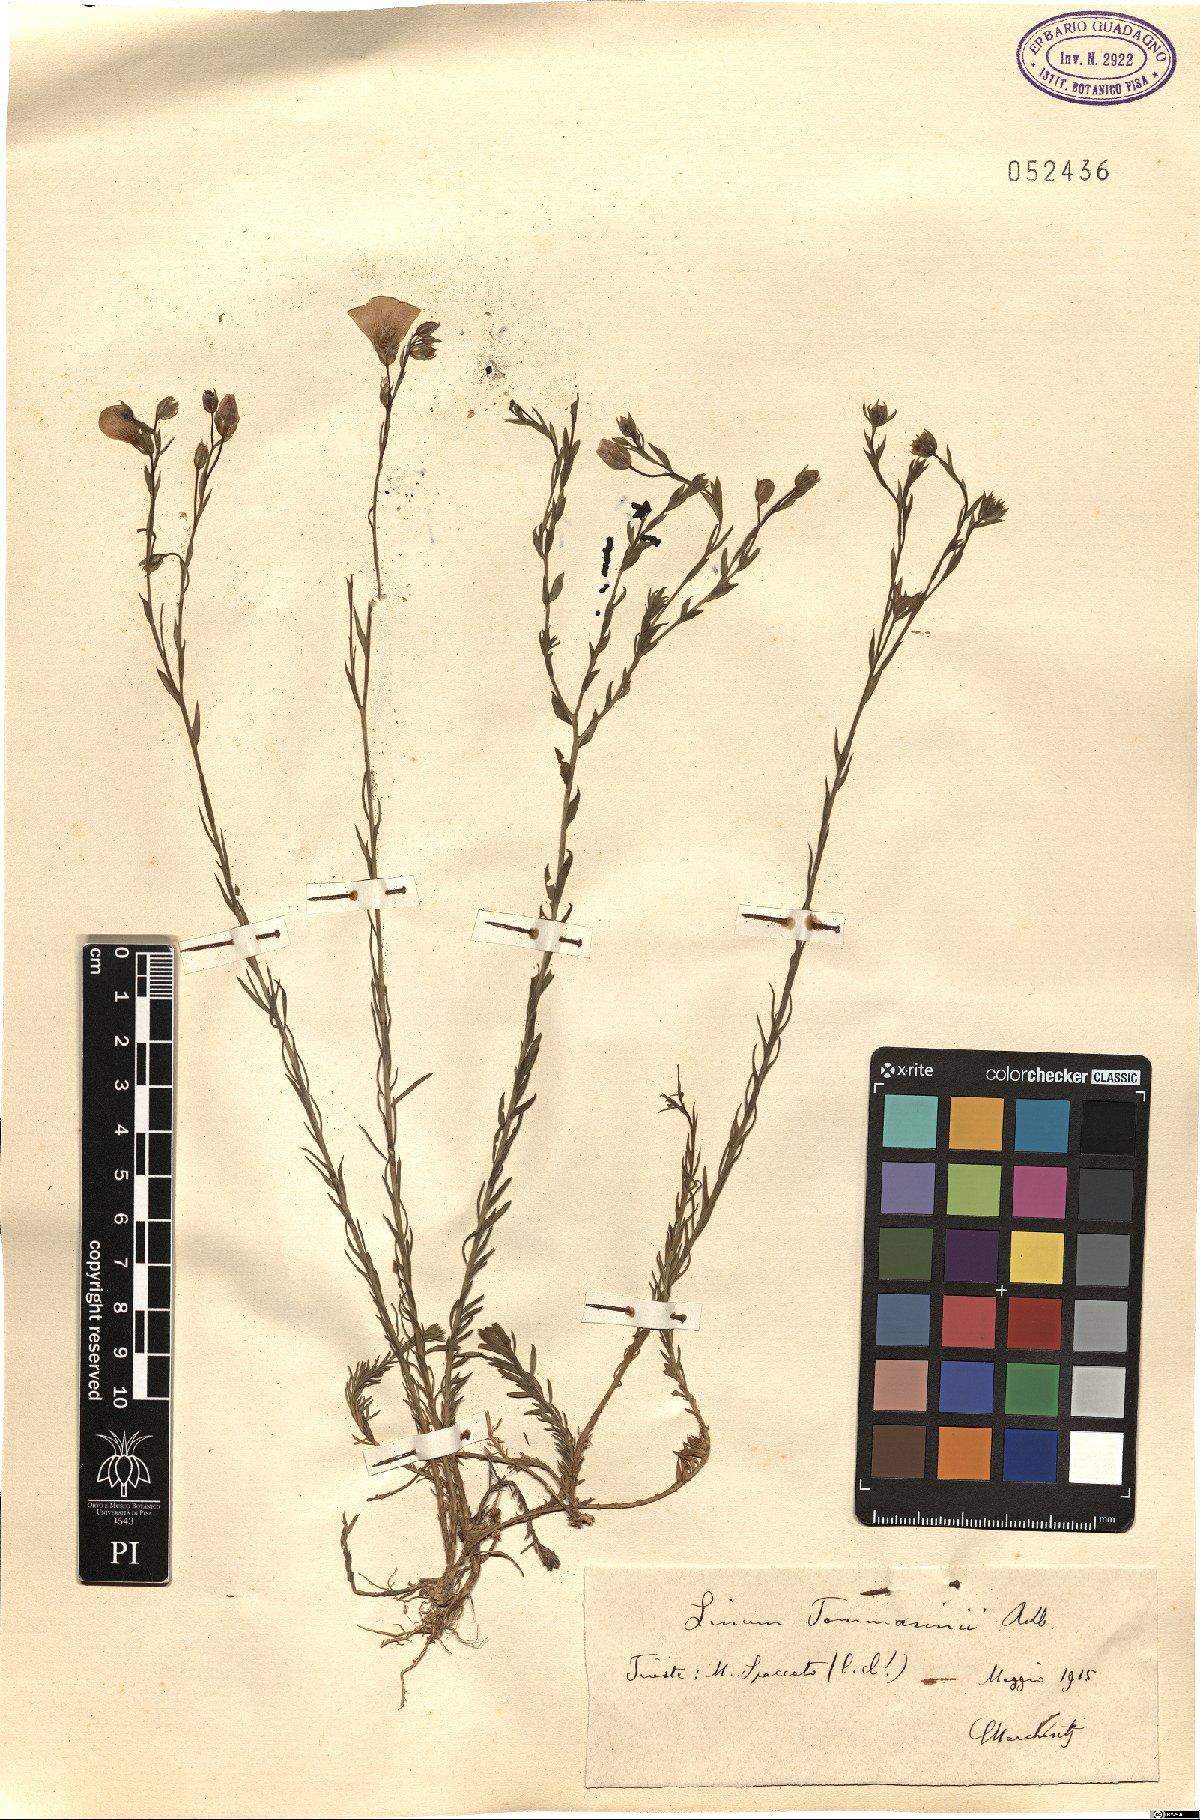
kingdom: Plantae
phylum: Tracheophyta
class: Magnoliopsida
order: Malpighiales
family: Linaceae
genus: Linum
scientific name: Linum austriacum
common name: Austrian flax
